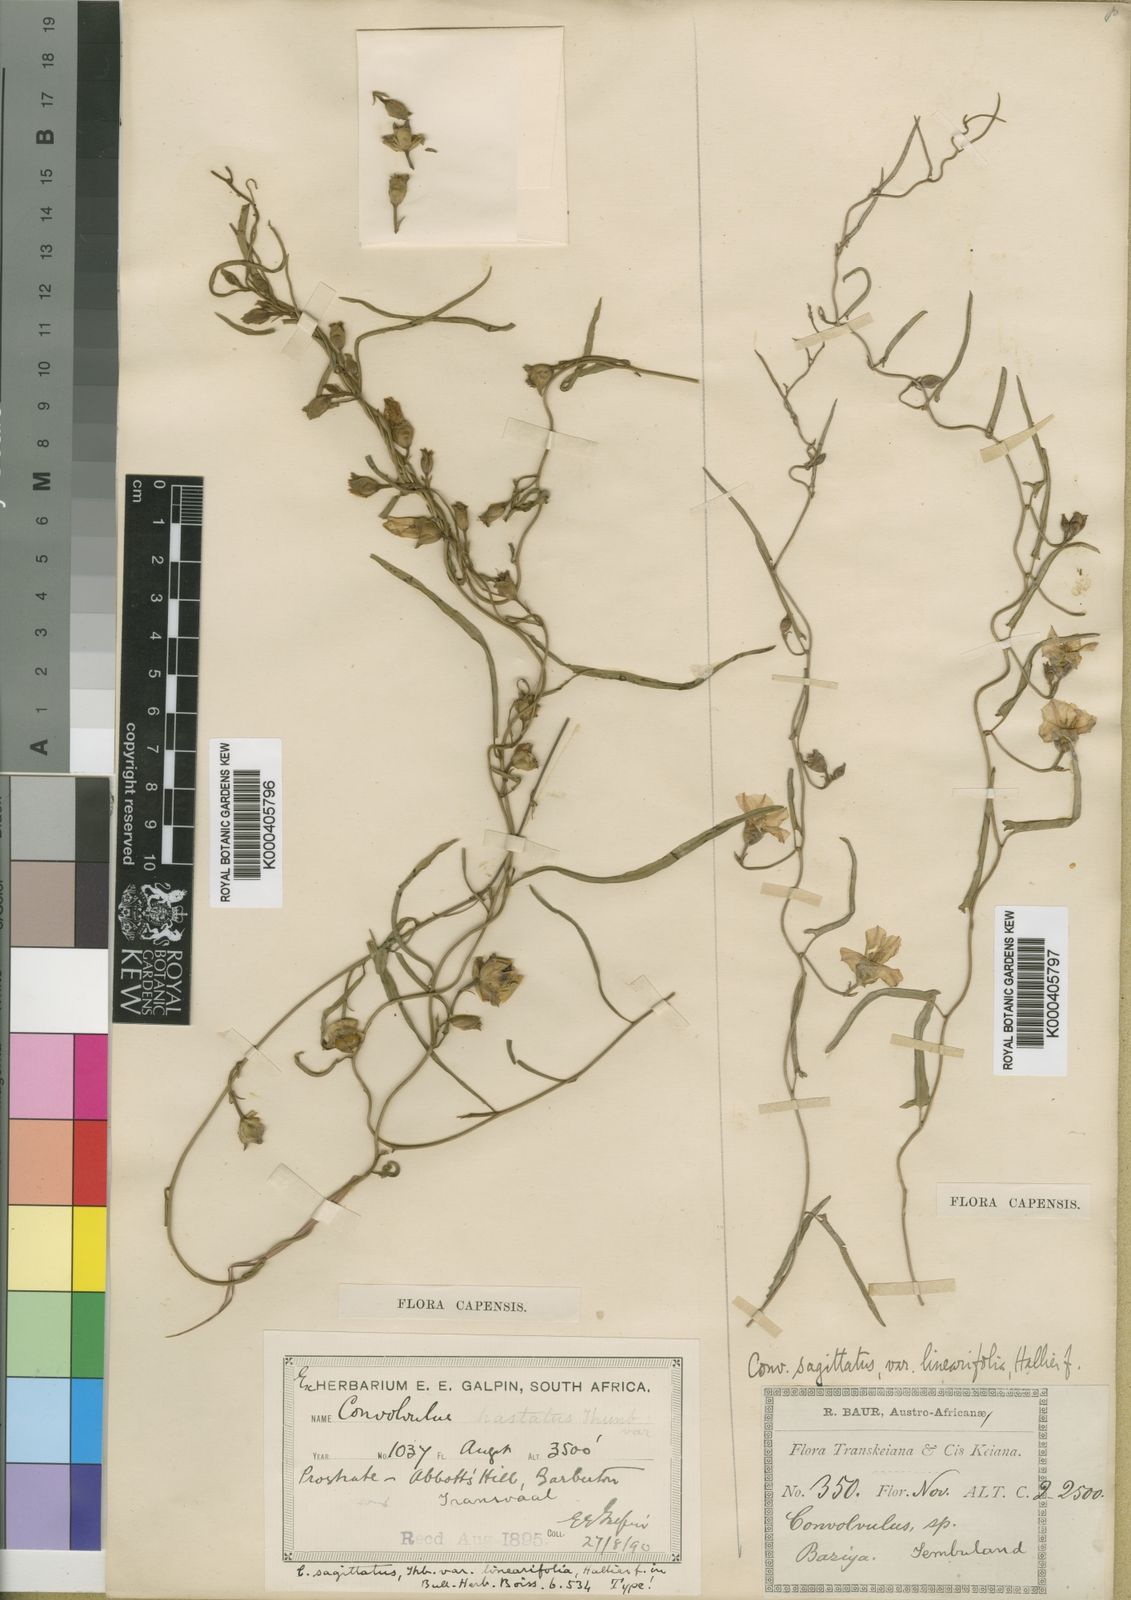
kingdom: Plantae
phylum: Tracheophyta
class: Magnoliopsida
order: Solanales
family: Convolvulaceae
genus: Convolvulus
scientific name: Convolvulus sagittatus
